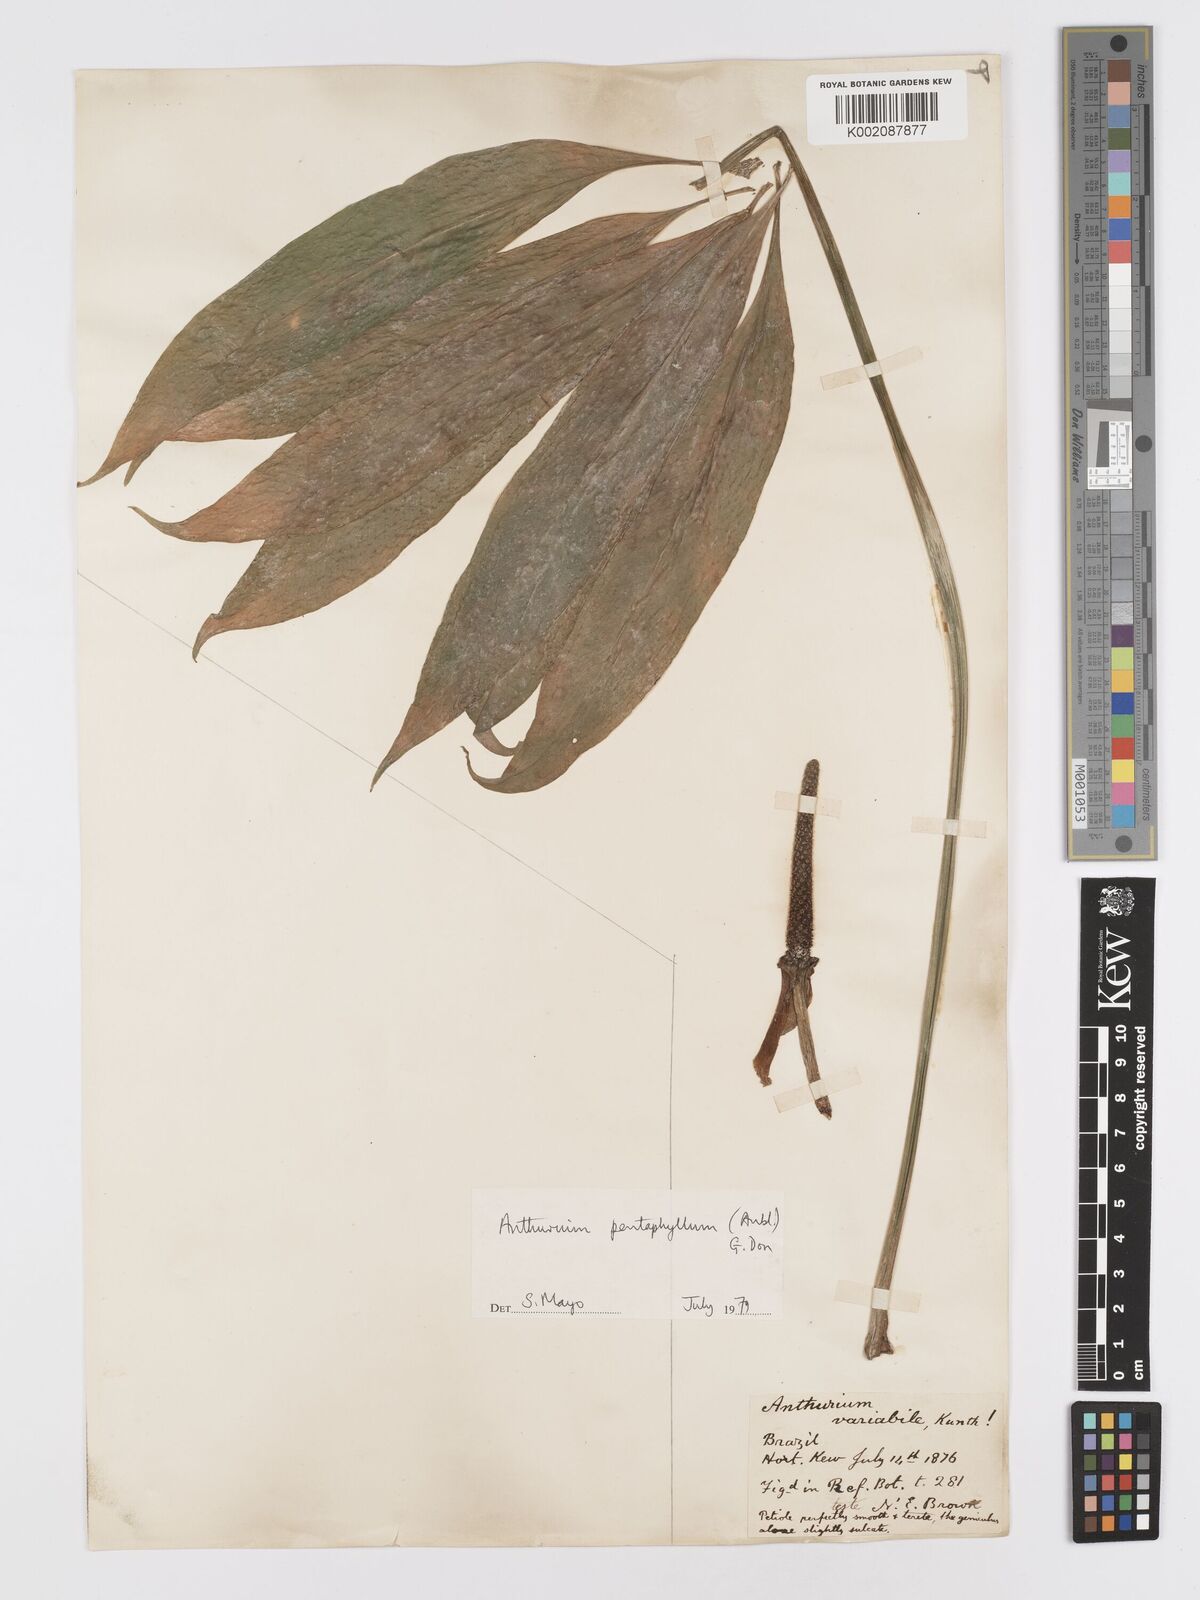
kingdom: Plantae
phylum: Tracheophyta
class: Liliopsida
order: Alismatales
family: Araceae
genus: Anthurium
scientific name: Anthurium pentaphyllum
